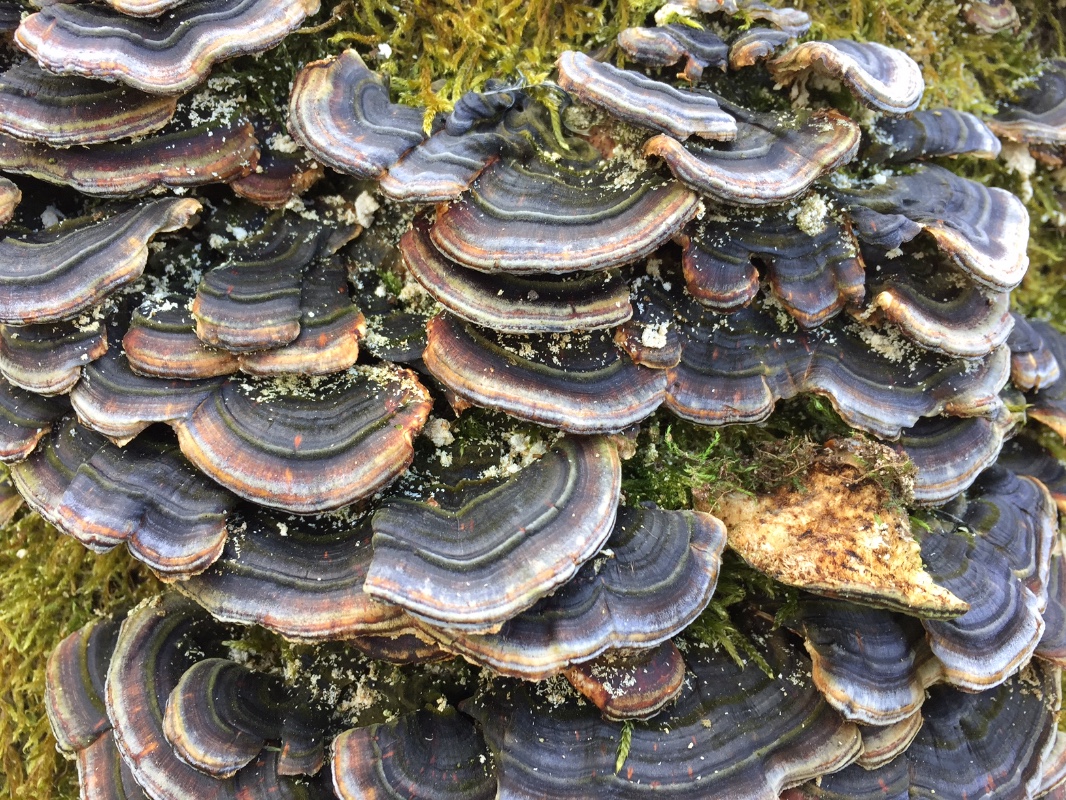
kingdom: Fungi
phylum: Basidiomycota
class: Agaricomycetes
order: Polyporales
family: Polyporaceae
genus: Trametes
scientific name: Trametes versicolor
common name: broget læderporesvamp
